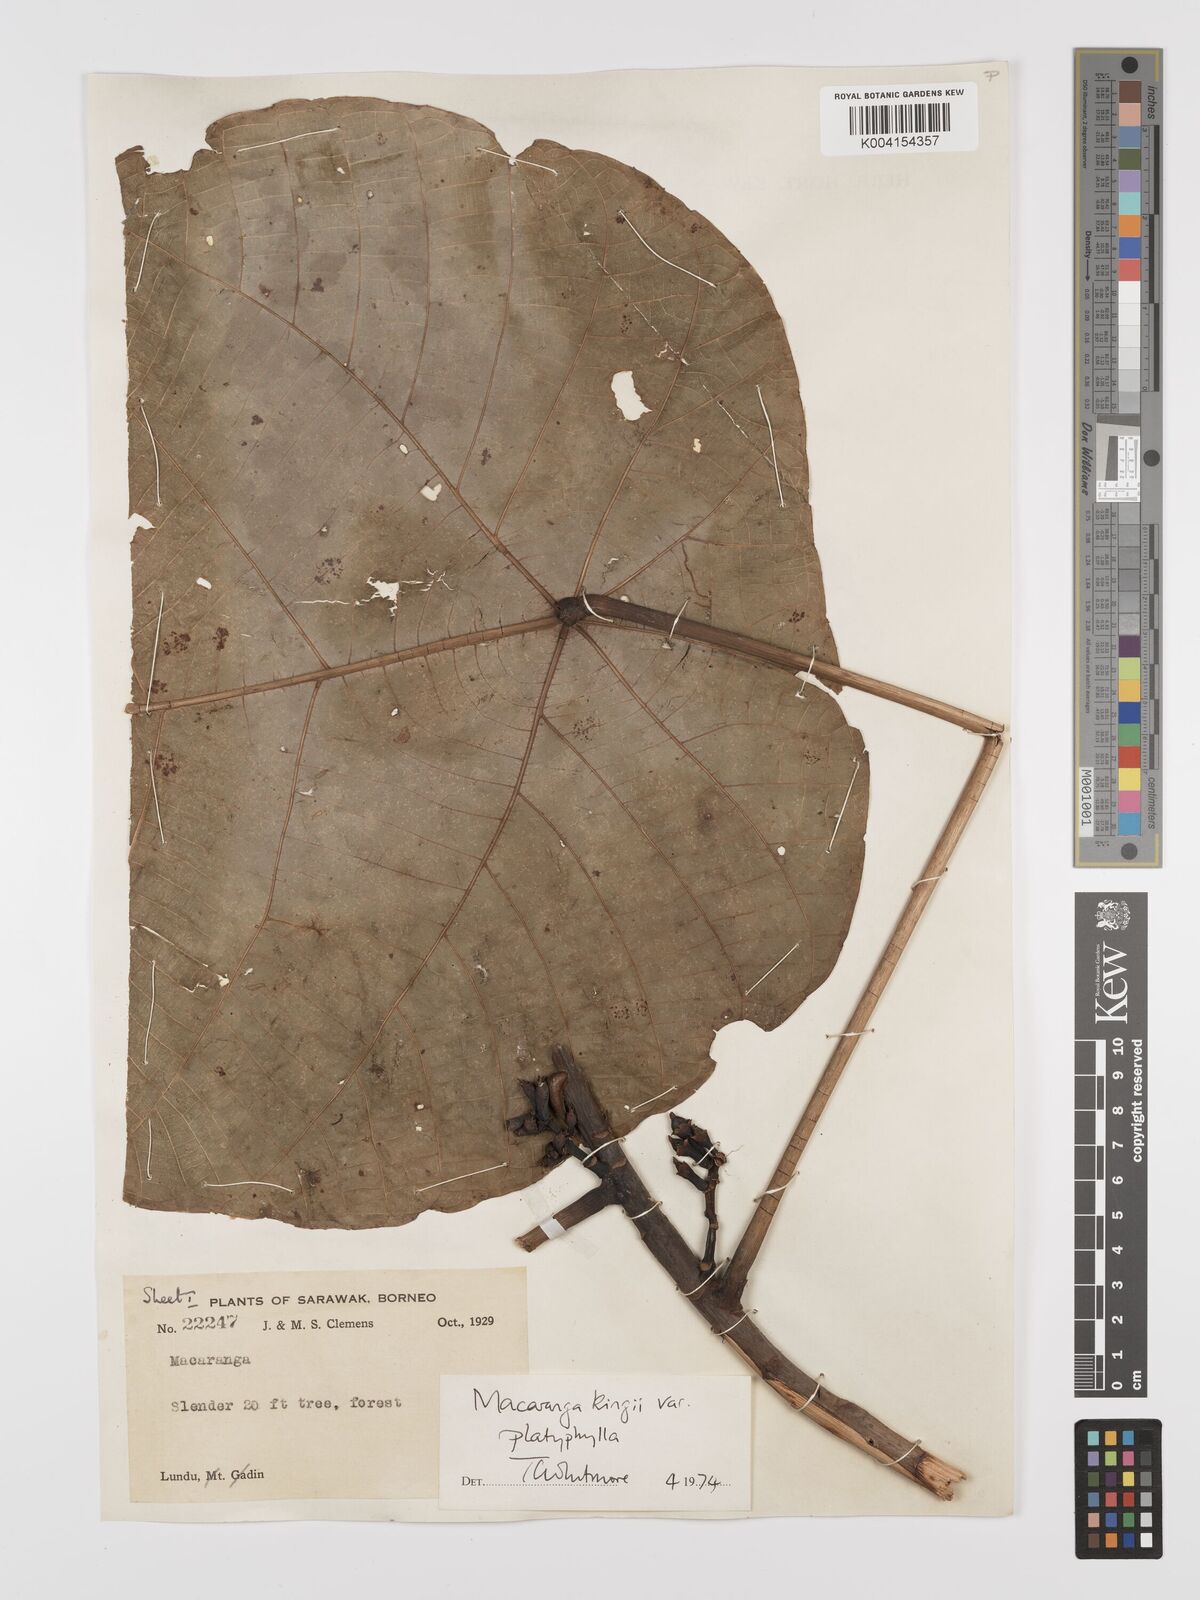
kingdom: Plantae
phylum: Tracheophyta
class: Magnoliopsida
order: Malpighiales
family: Euphorbiaceae
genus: Macaranga
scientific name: Macaranga umbrosa
